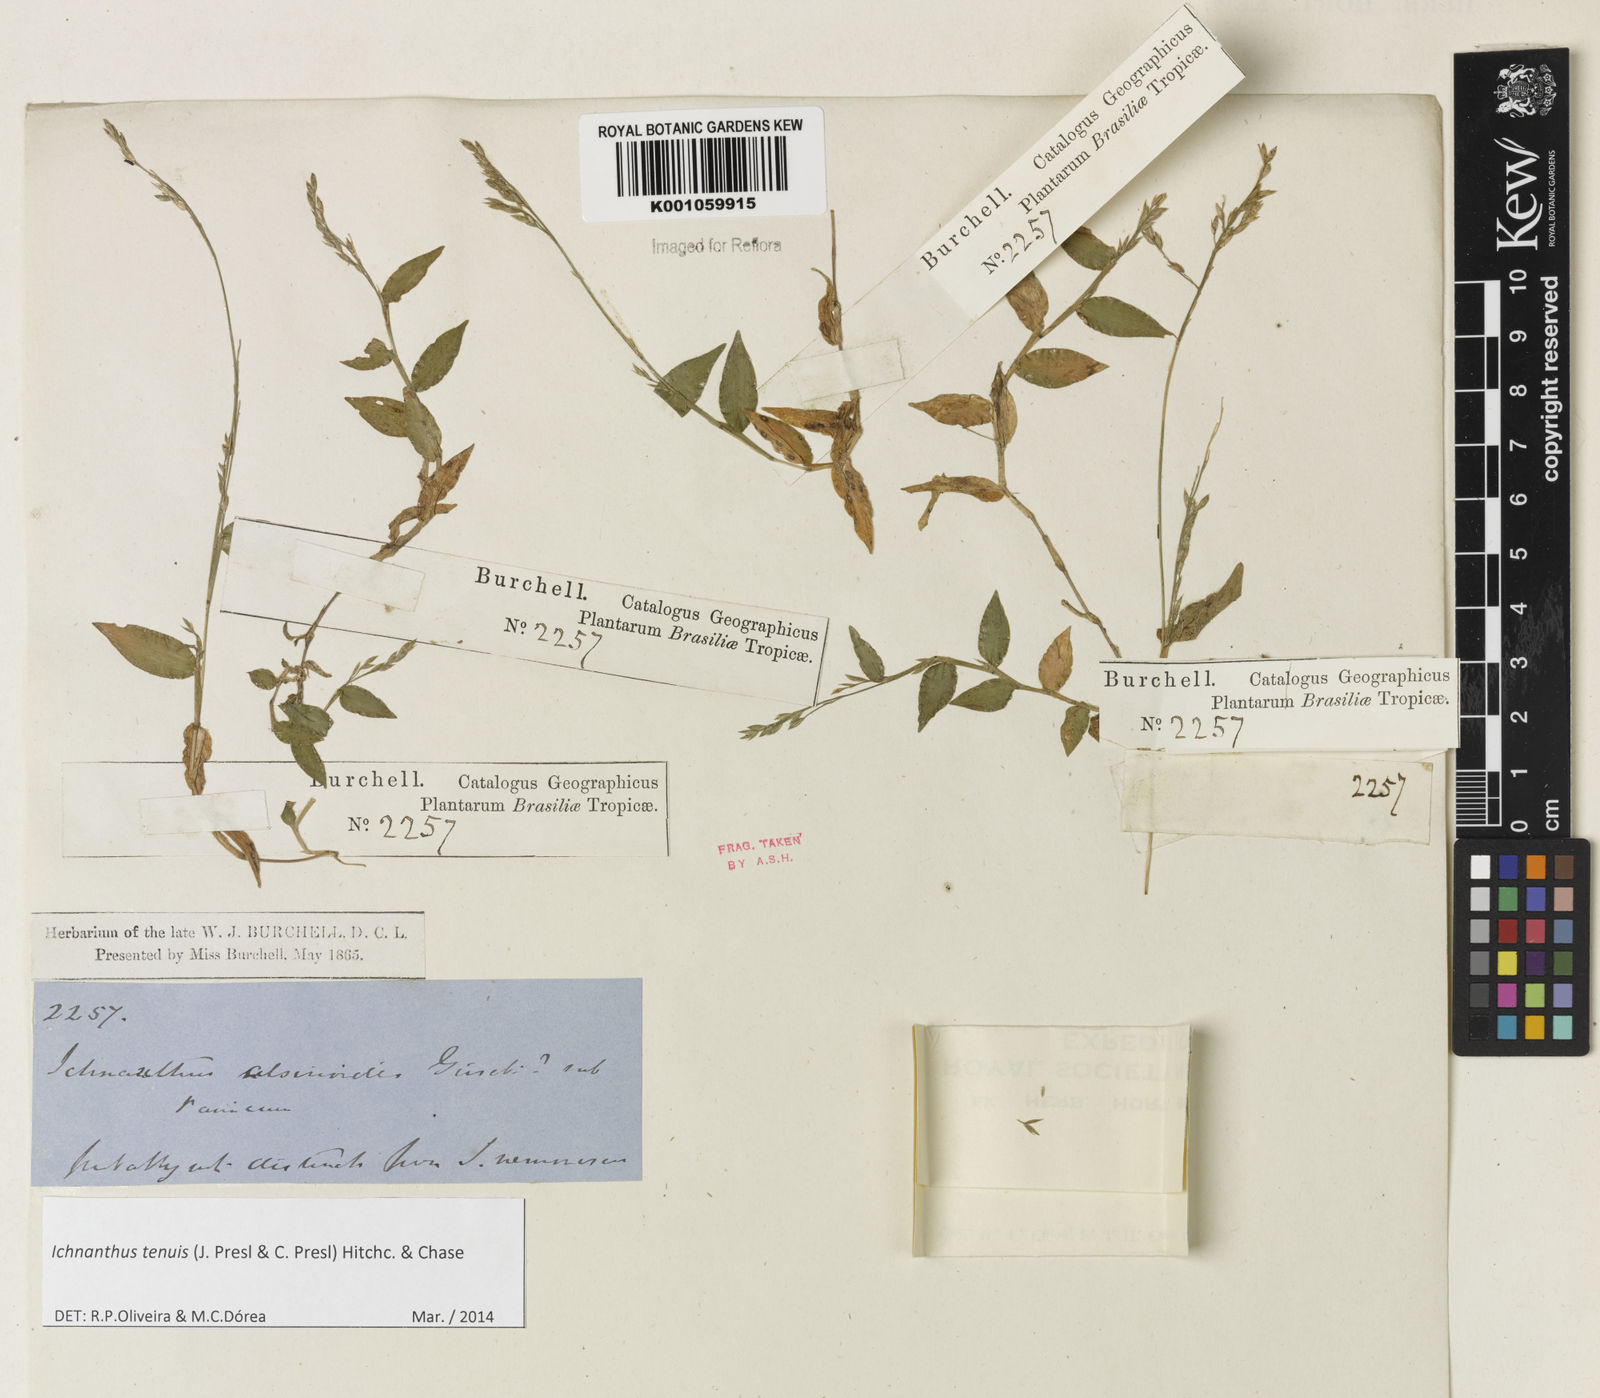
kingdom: Plantae
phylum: Tracheophyta
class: Liliopsida
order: Poales
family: Poaceae
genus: Ichnanthus
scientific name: Ichnanthus tenuis
